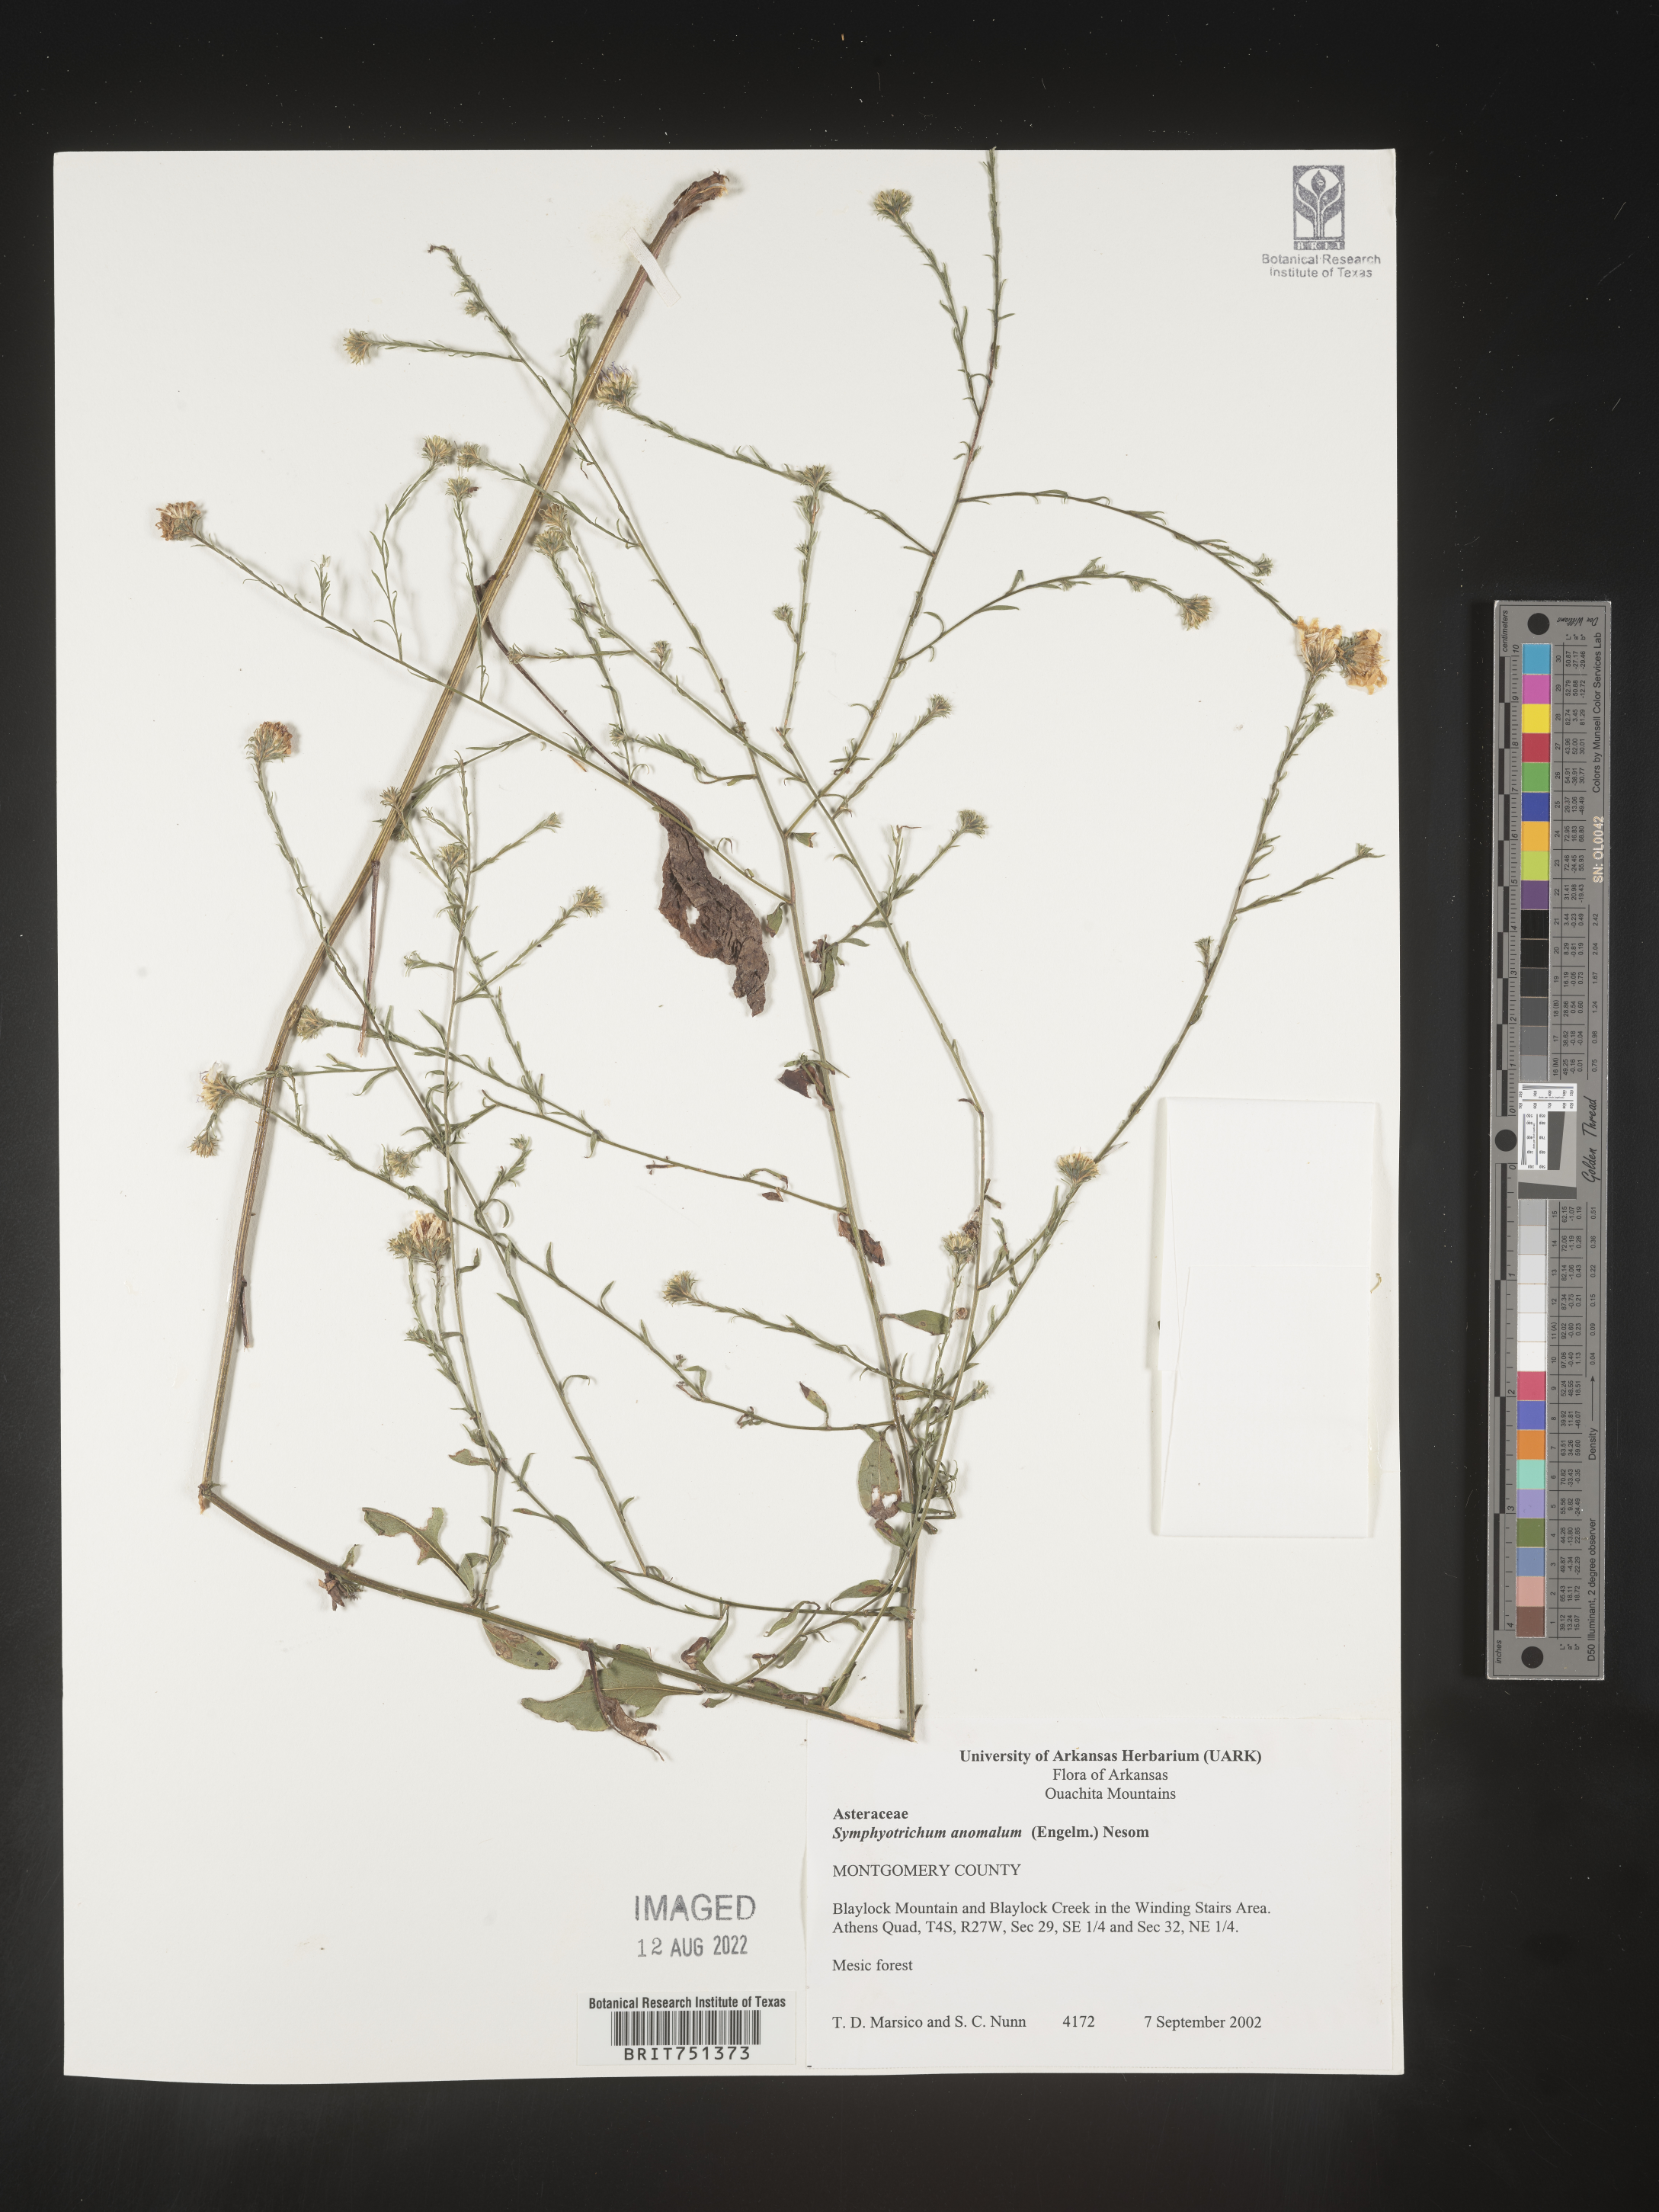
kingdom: Plantae
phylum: Tracheophyta
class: Magnoliopsida
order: Asterales
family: Asteraceae
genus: Symphyotrichum
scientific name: Symphyotrichum anomalum
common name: Many-ray aster
